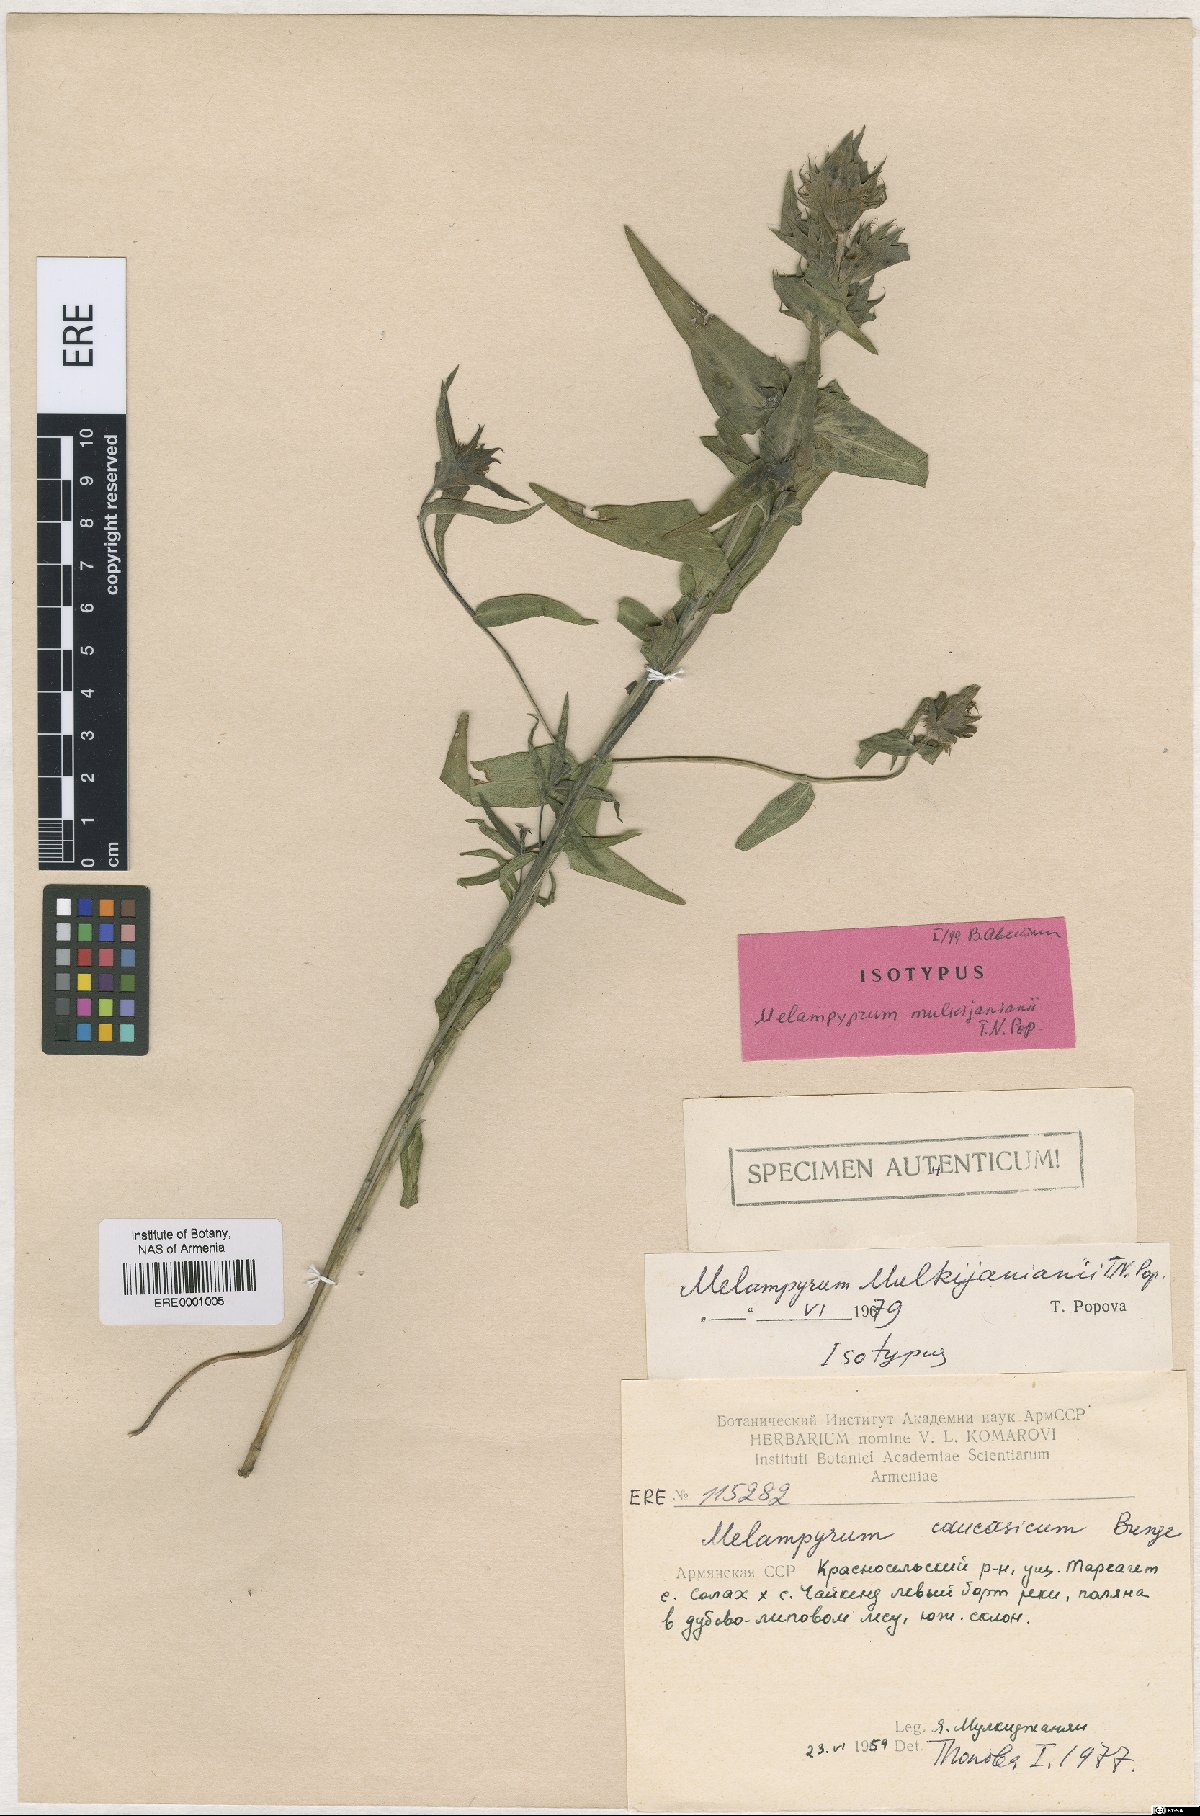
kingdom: Plantae
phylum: Tracheophyta
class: Magnoliopsida
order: Lamiales
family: Orobanchaceae
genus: Melampyrum
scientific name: Melampyrum mulkijanianii
